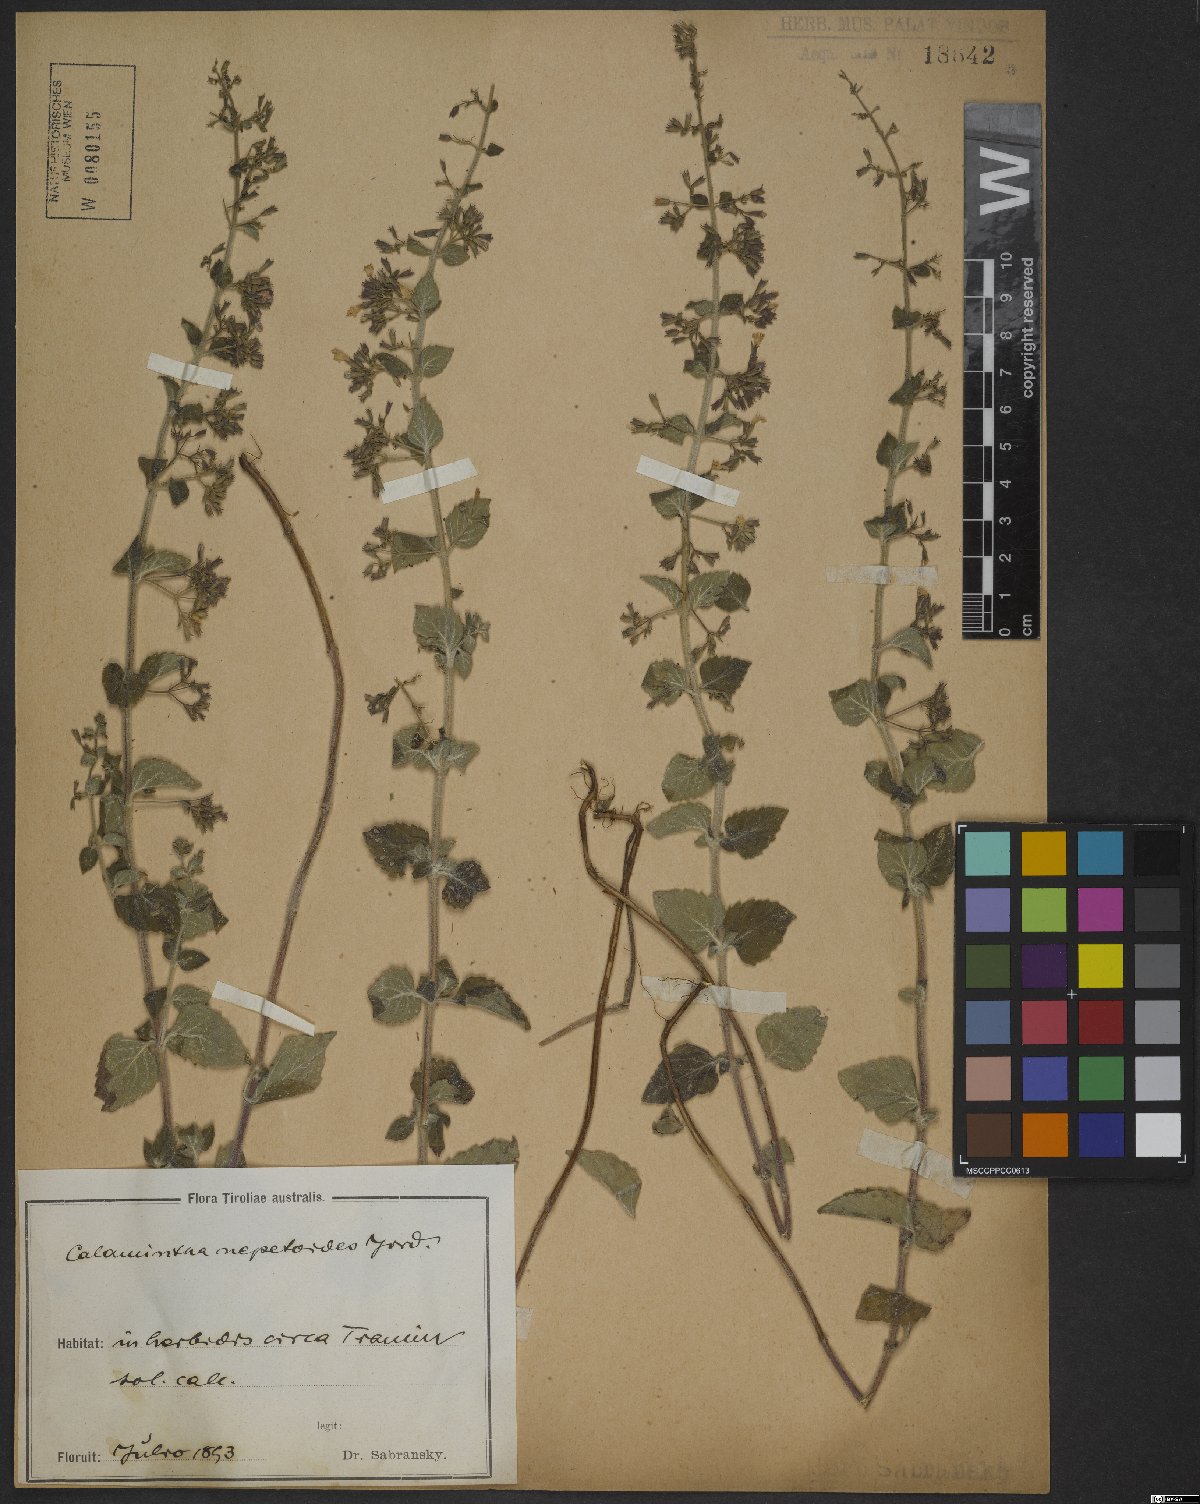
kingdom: Plantae
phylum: Tracheophyta
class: Magnoliopsida
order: Lamiales
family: Lamiaceae
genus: Clinopodium
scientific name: Clinopodium nepeta
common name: Lesser calamint
